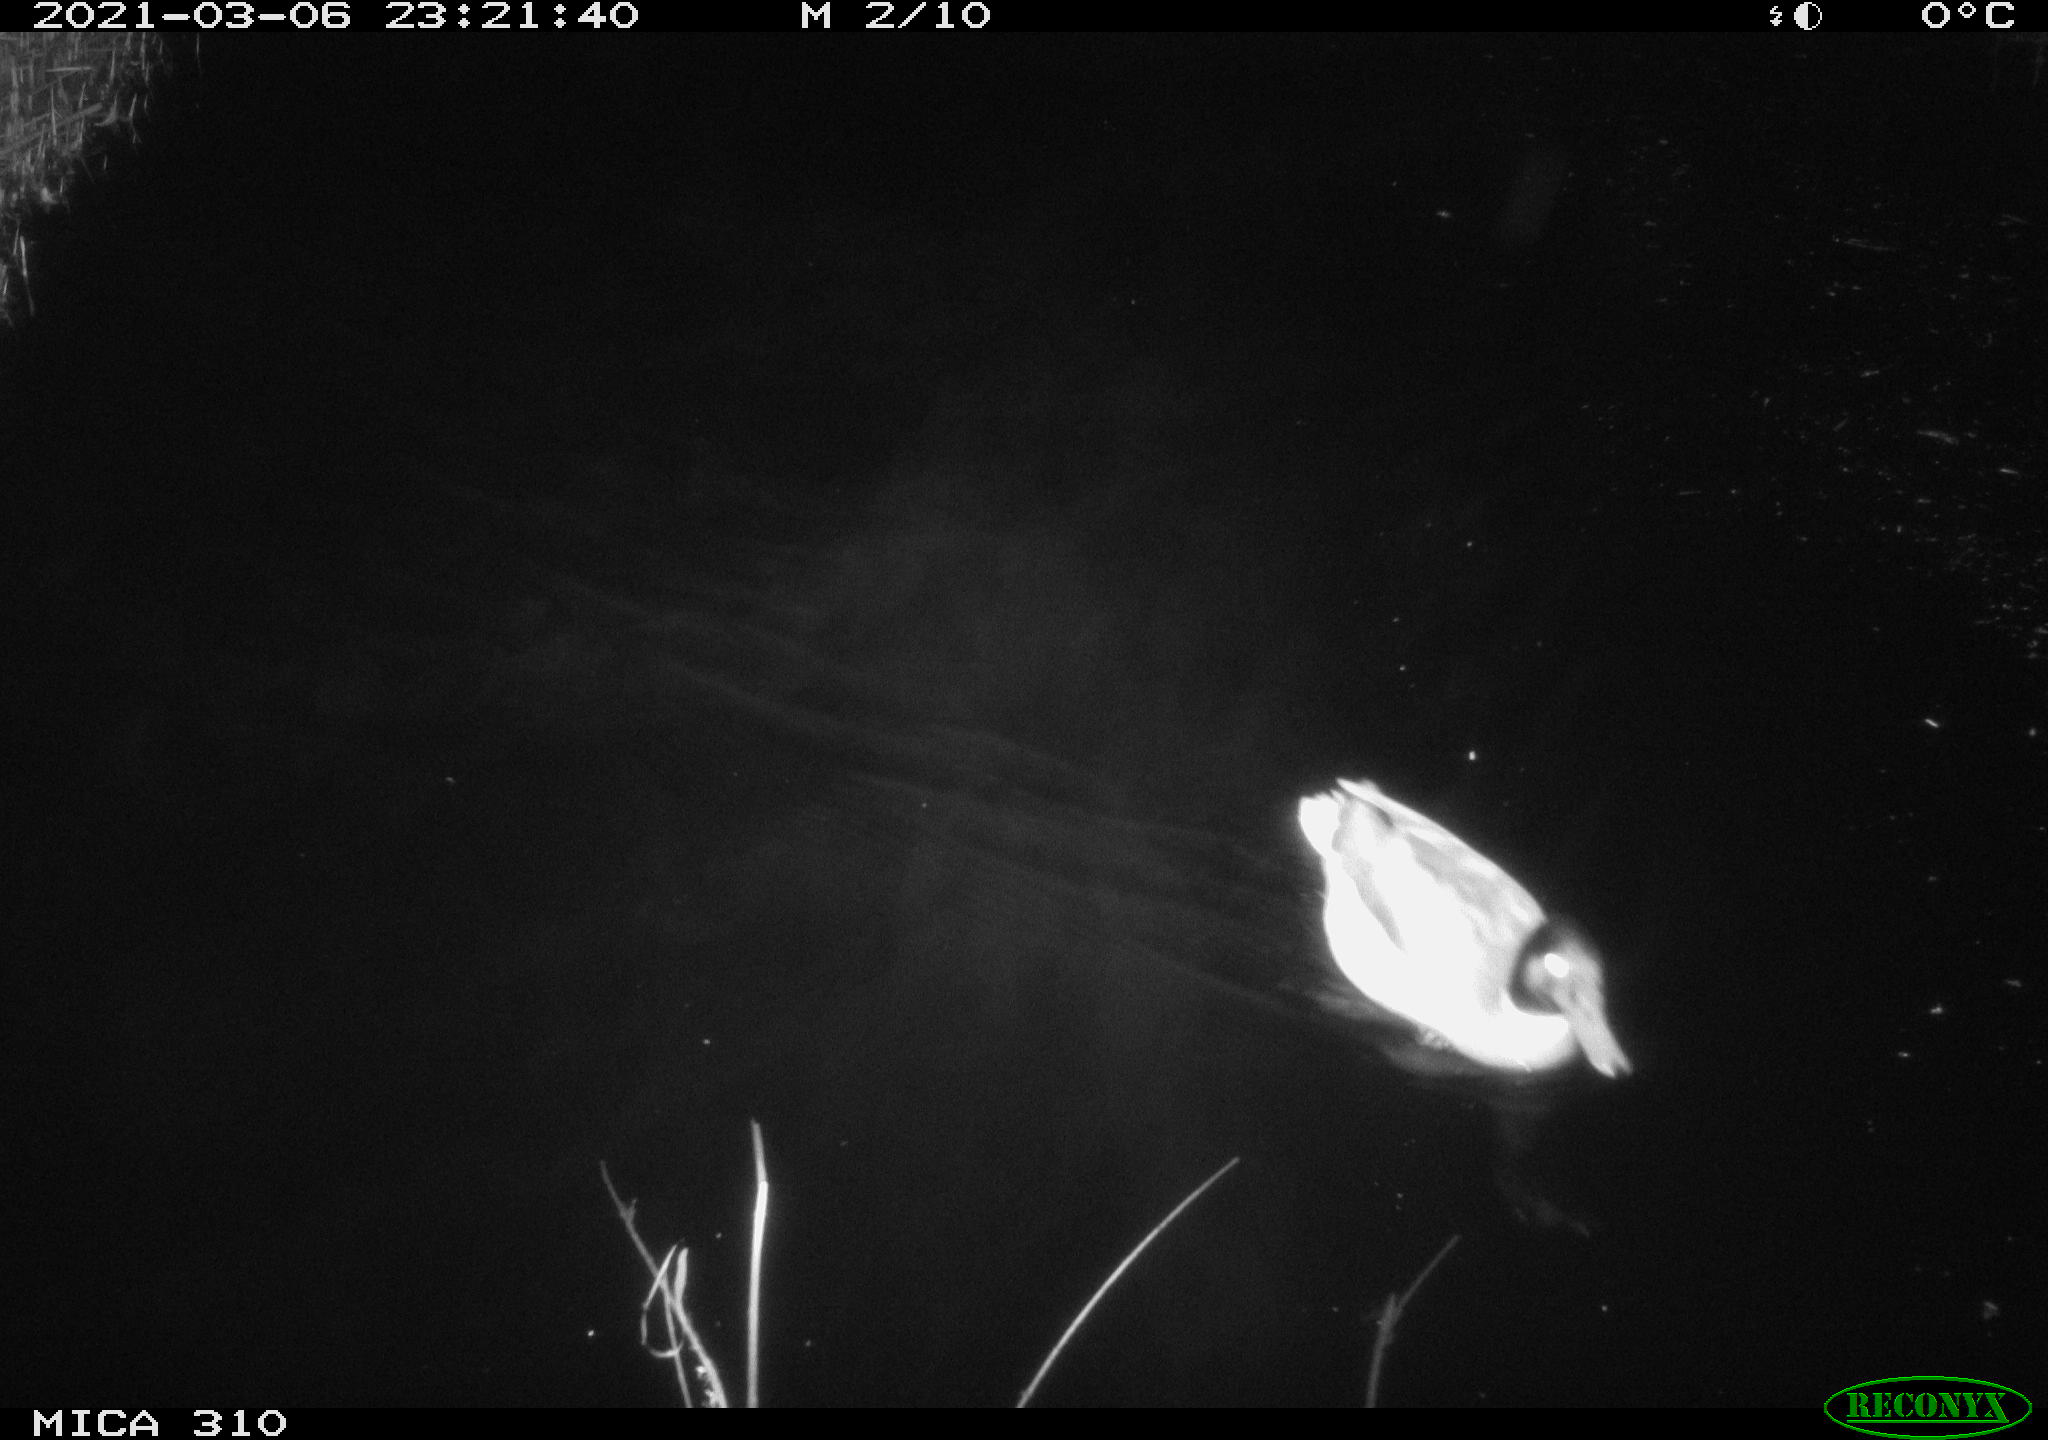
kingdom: Animalia
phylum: Chordata
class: Aves
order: Anseriformes
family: Anatidae
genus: Anas
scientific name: Anas platyrhynchos
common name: Mallard
